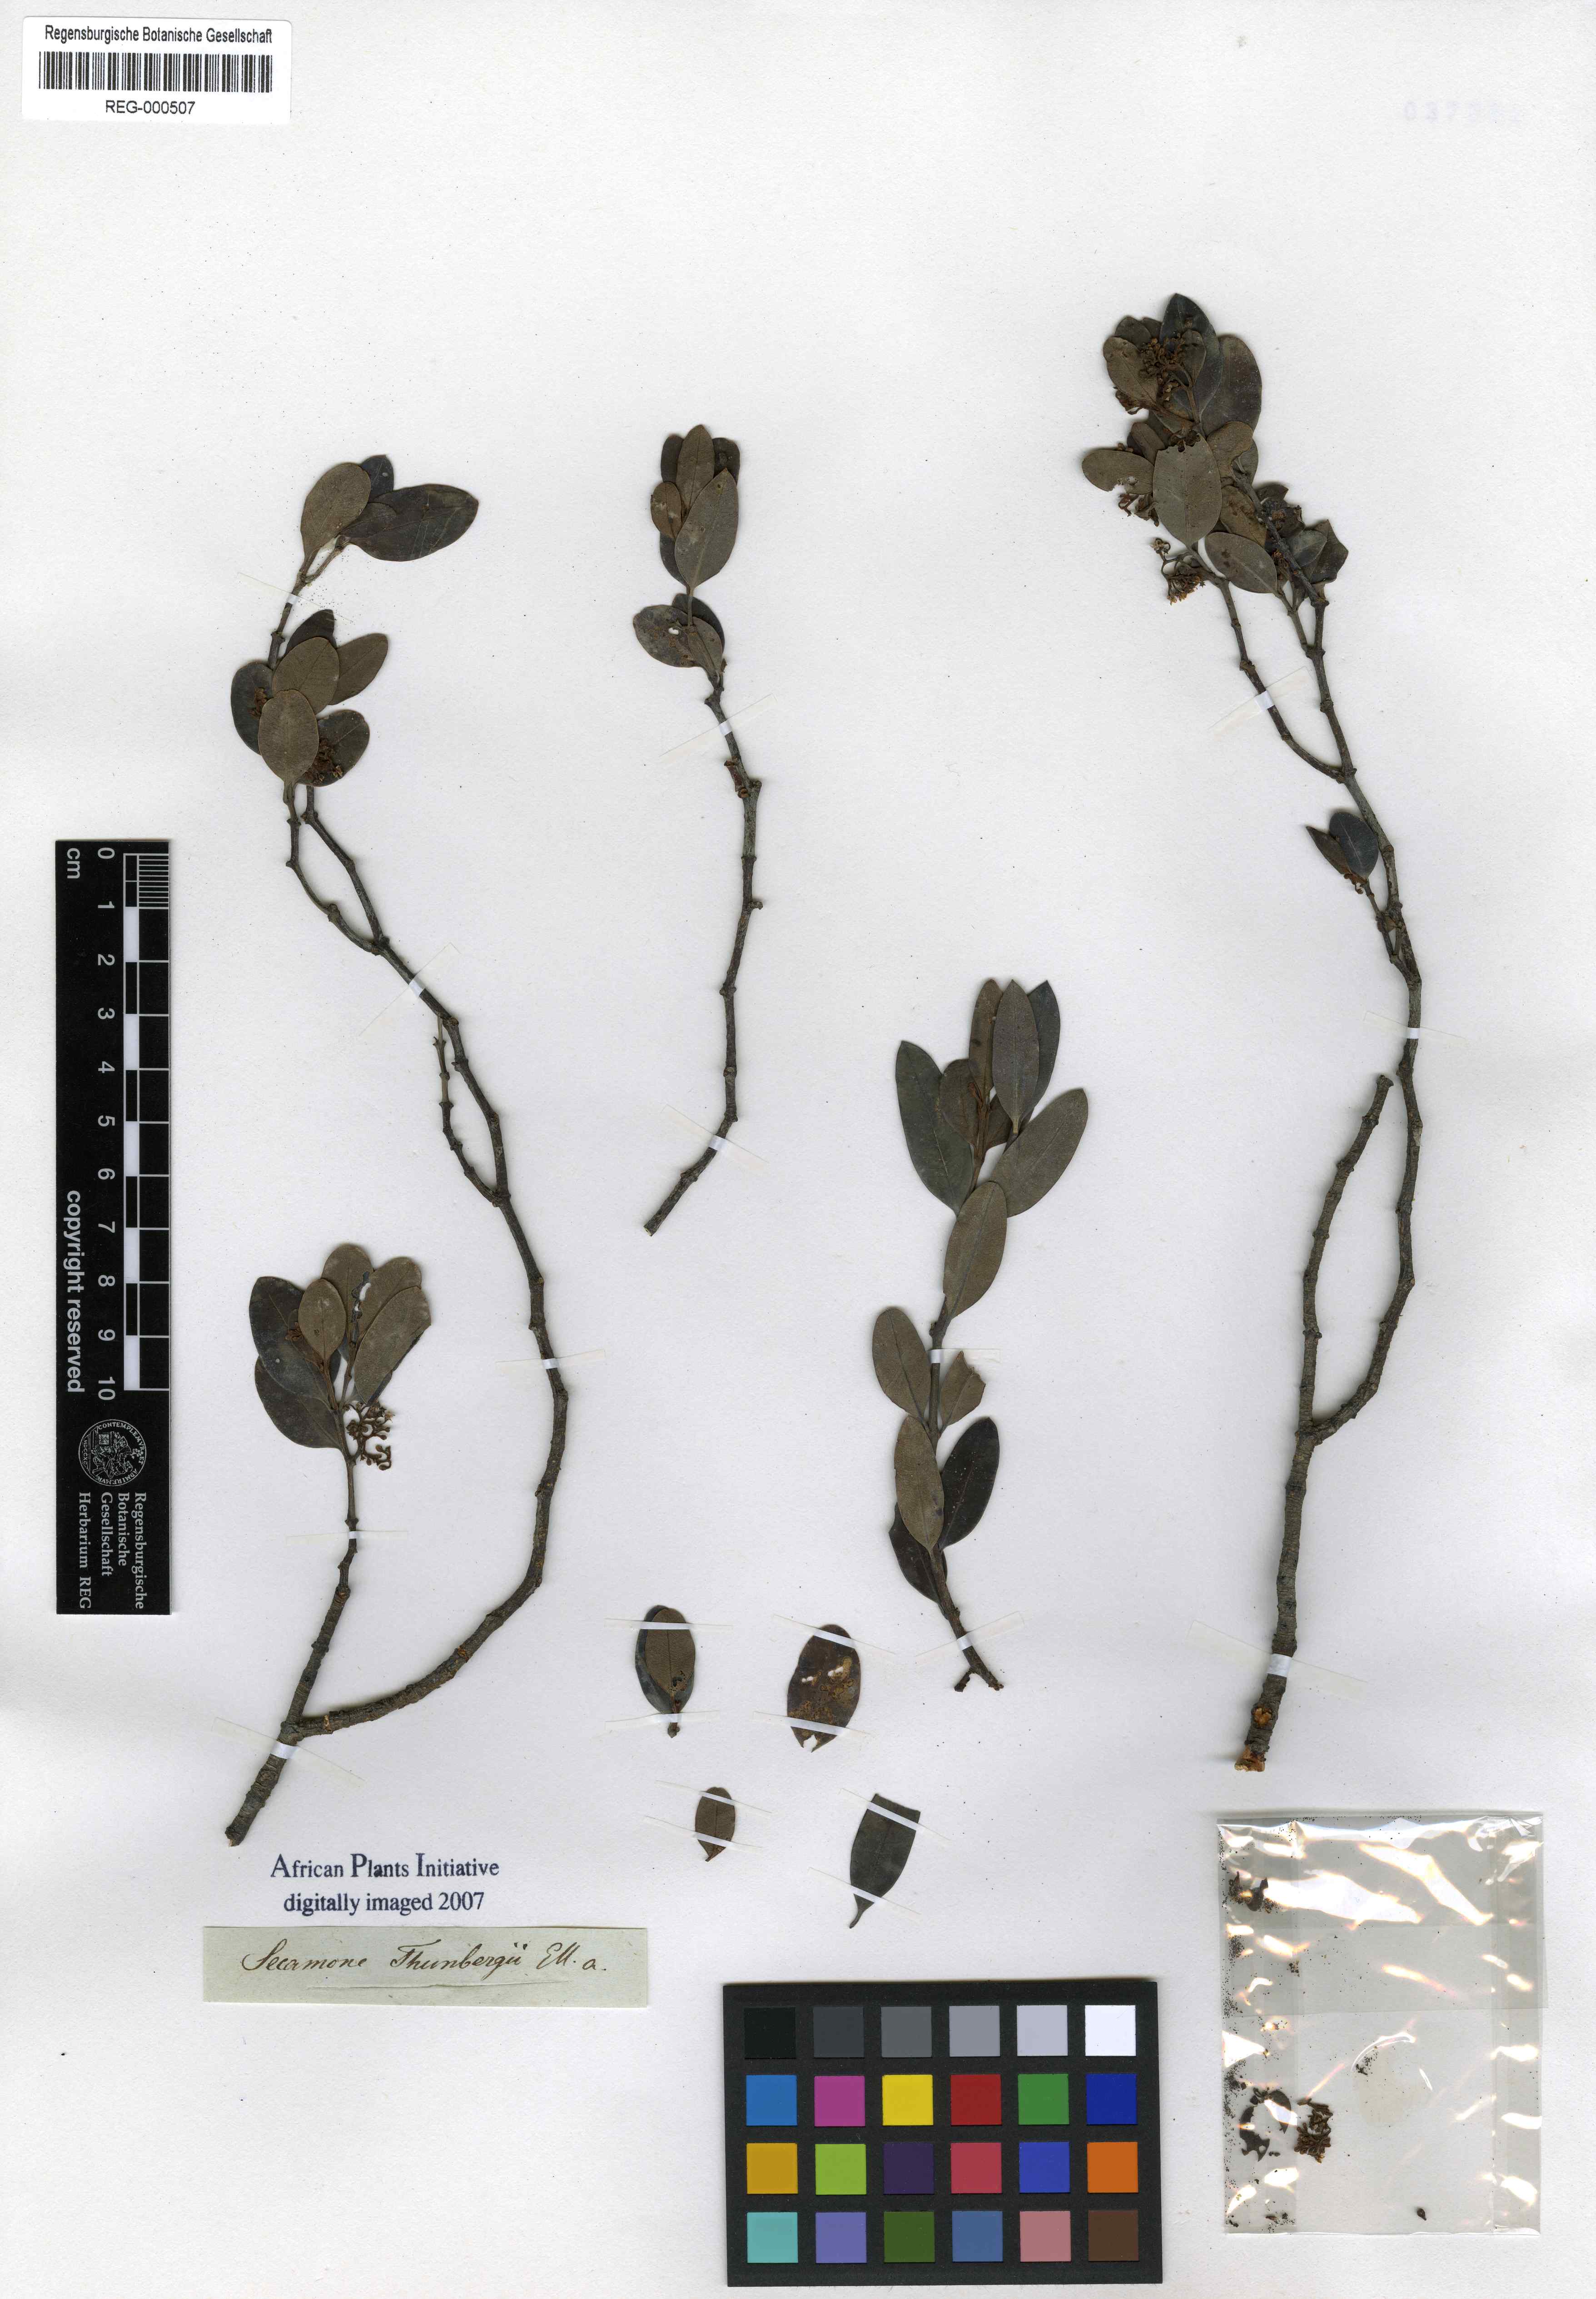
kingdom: Plantae
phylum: Tracheophyta
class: Magnoliopsida
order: Gentianales
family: Apocynaceae
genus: Secamone
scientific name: Secamone alpini
